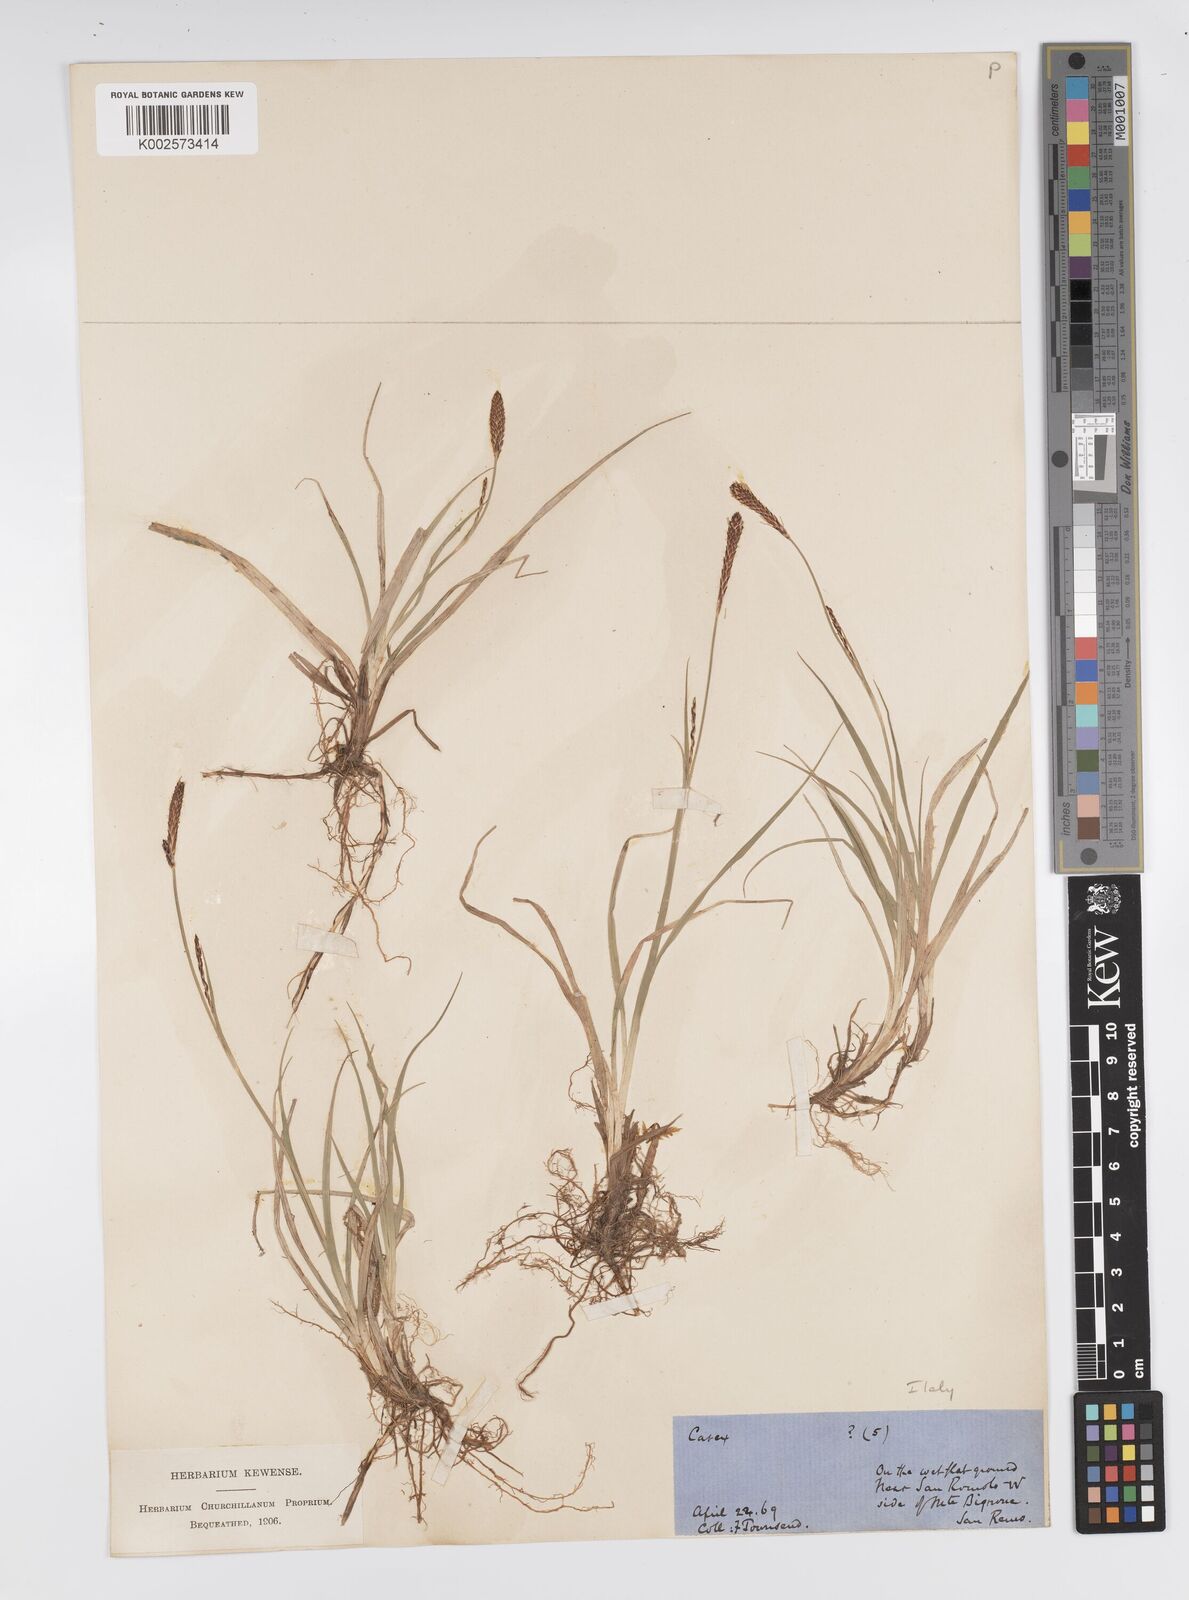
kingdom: Plantae
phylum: Tracheophyta
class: Liliopsida
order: Poales
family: Cyperaceae
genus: Carex
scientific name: Carex livida
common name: Livid sedge
